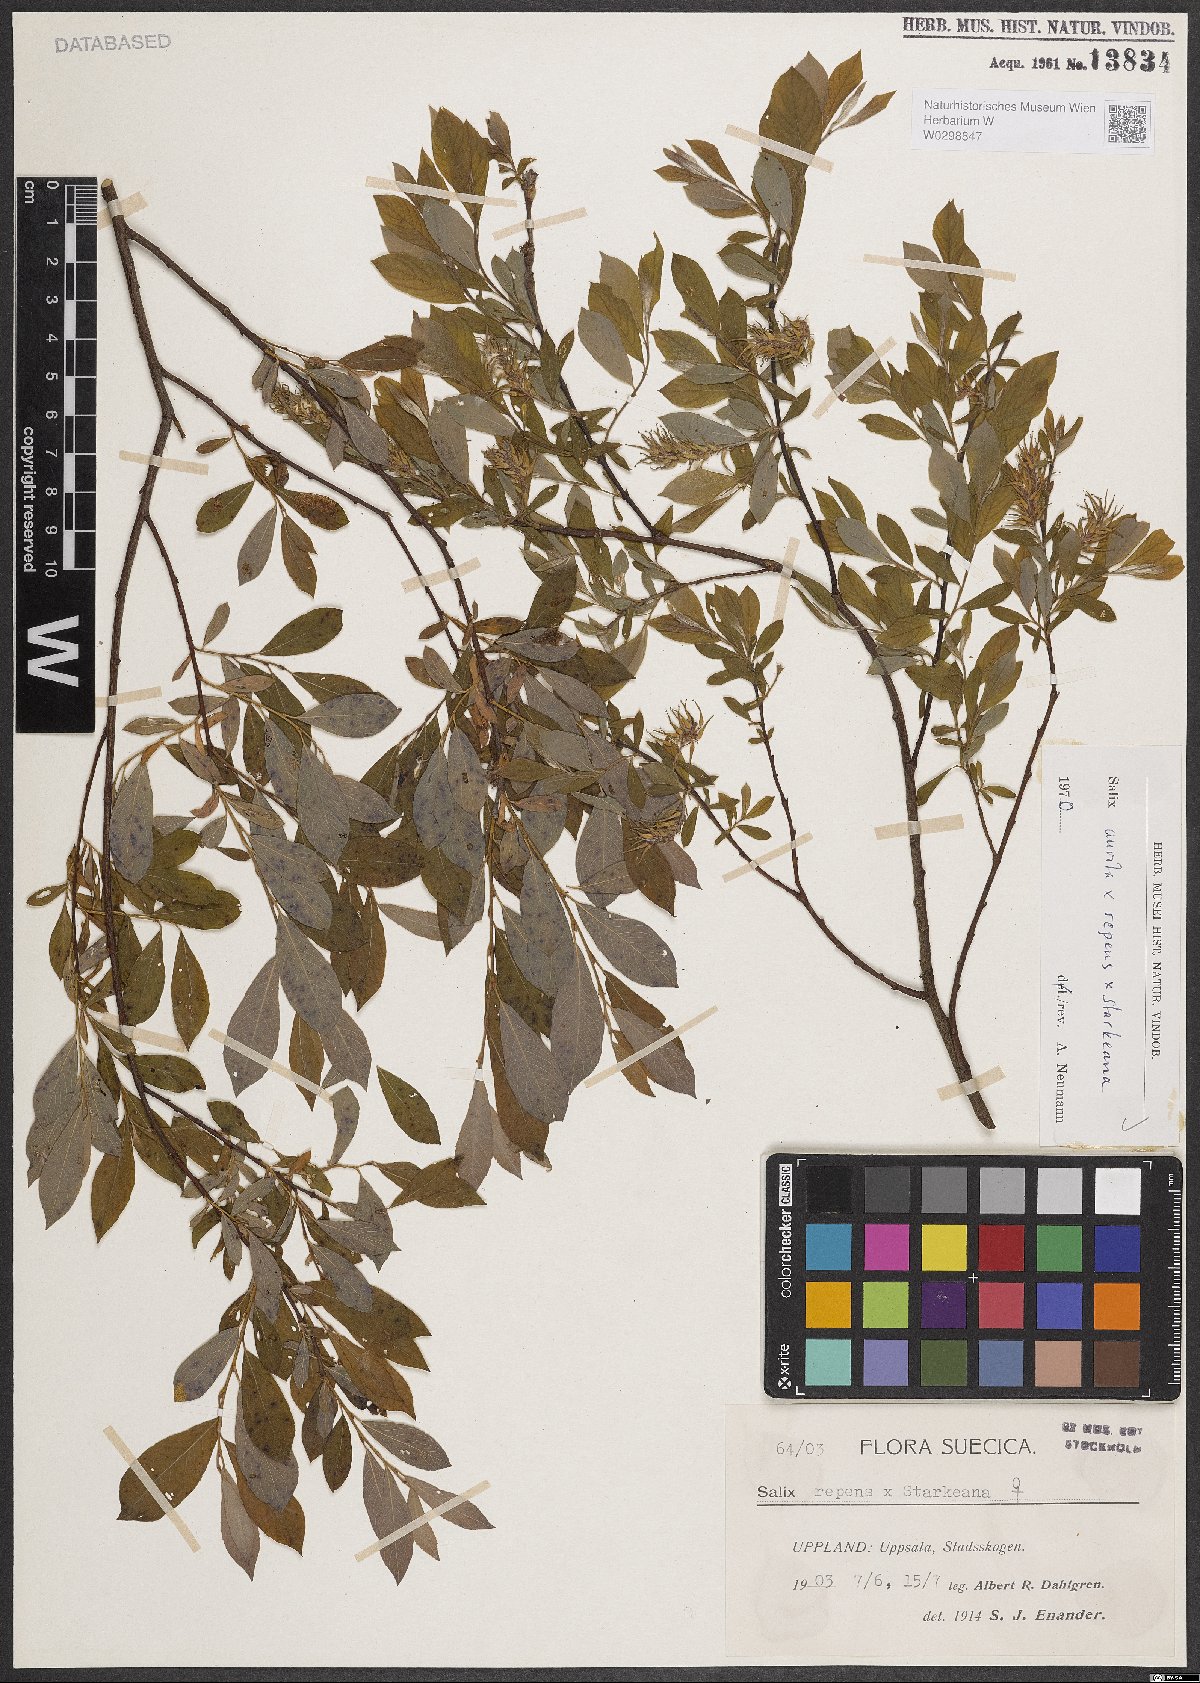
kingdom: Plantae
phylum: Tracheophyta
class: Magnoliopsida
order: Malpighiales
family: Salicaceae
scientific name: Salicaceae
